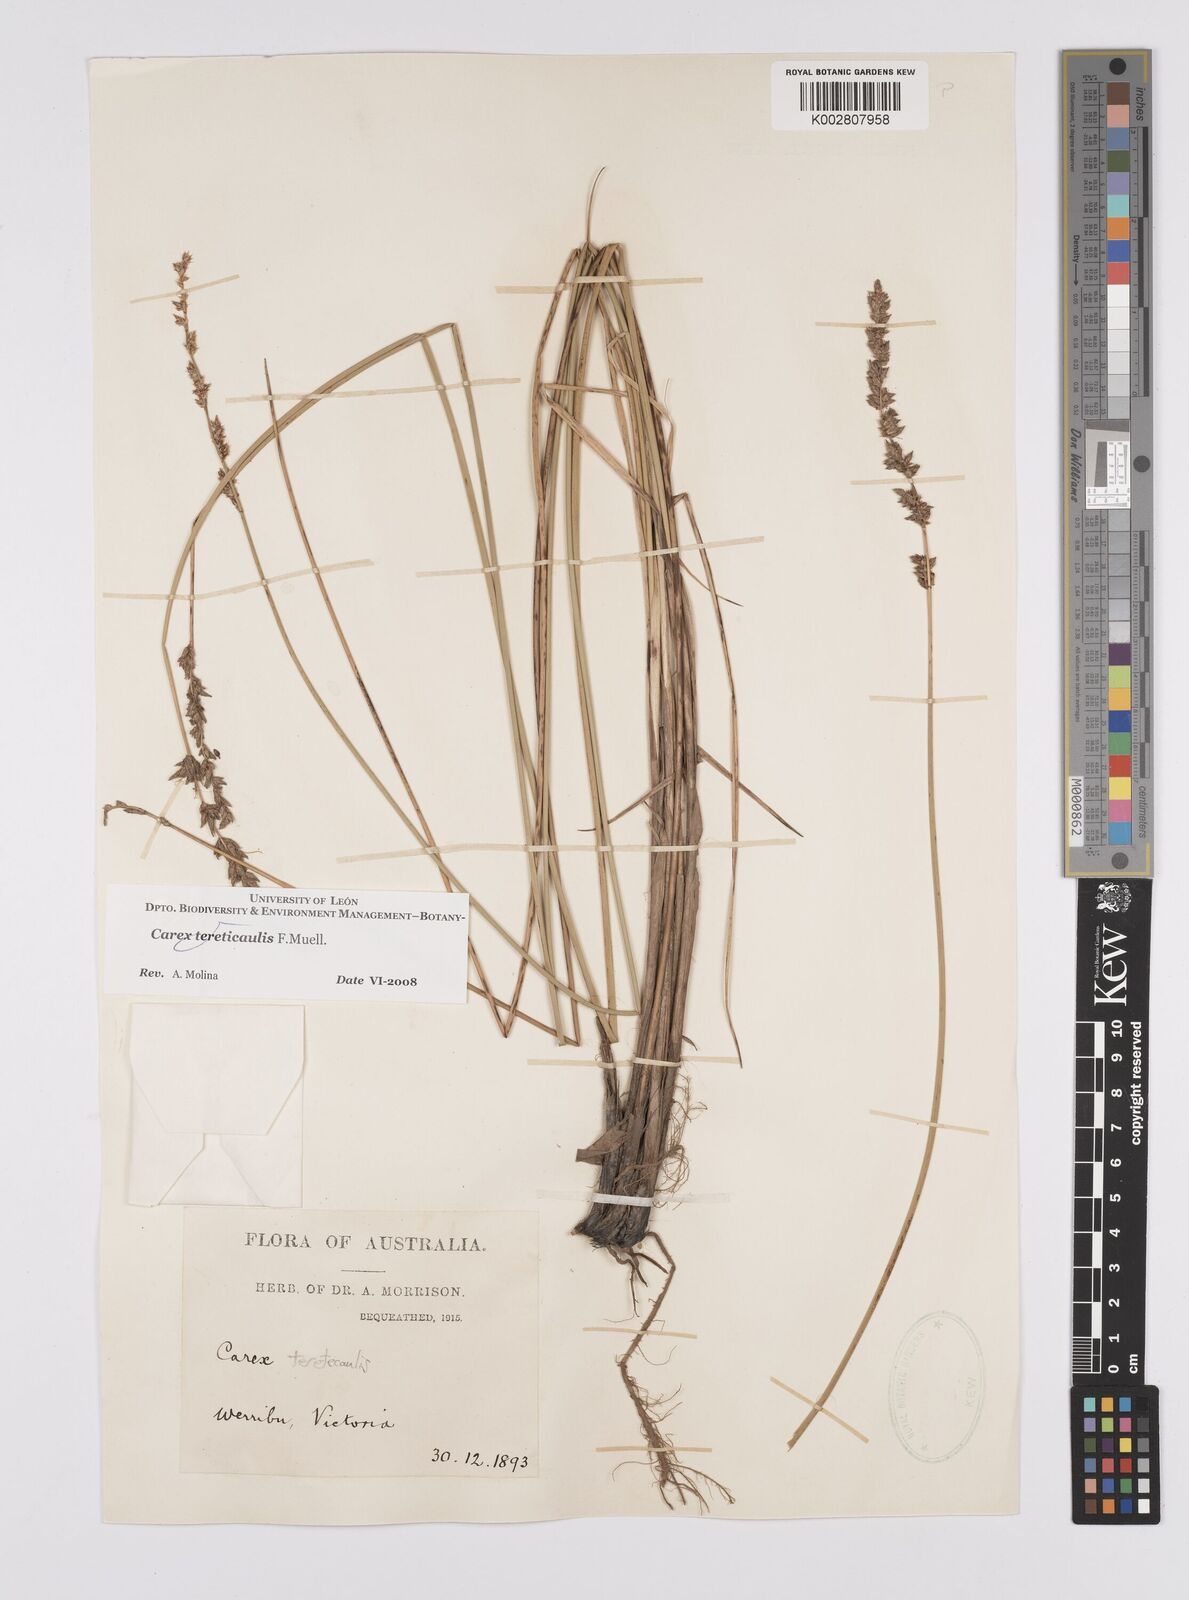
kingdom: Plantae
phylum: Tracheophyta
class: Liliopsida
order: Poales
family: Cyperaceae
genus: Carex
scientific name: Carex tereticaulis
